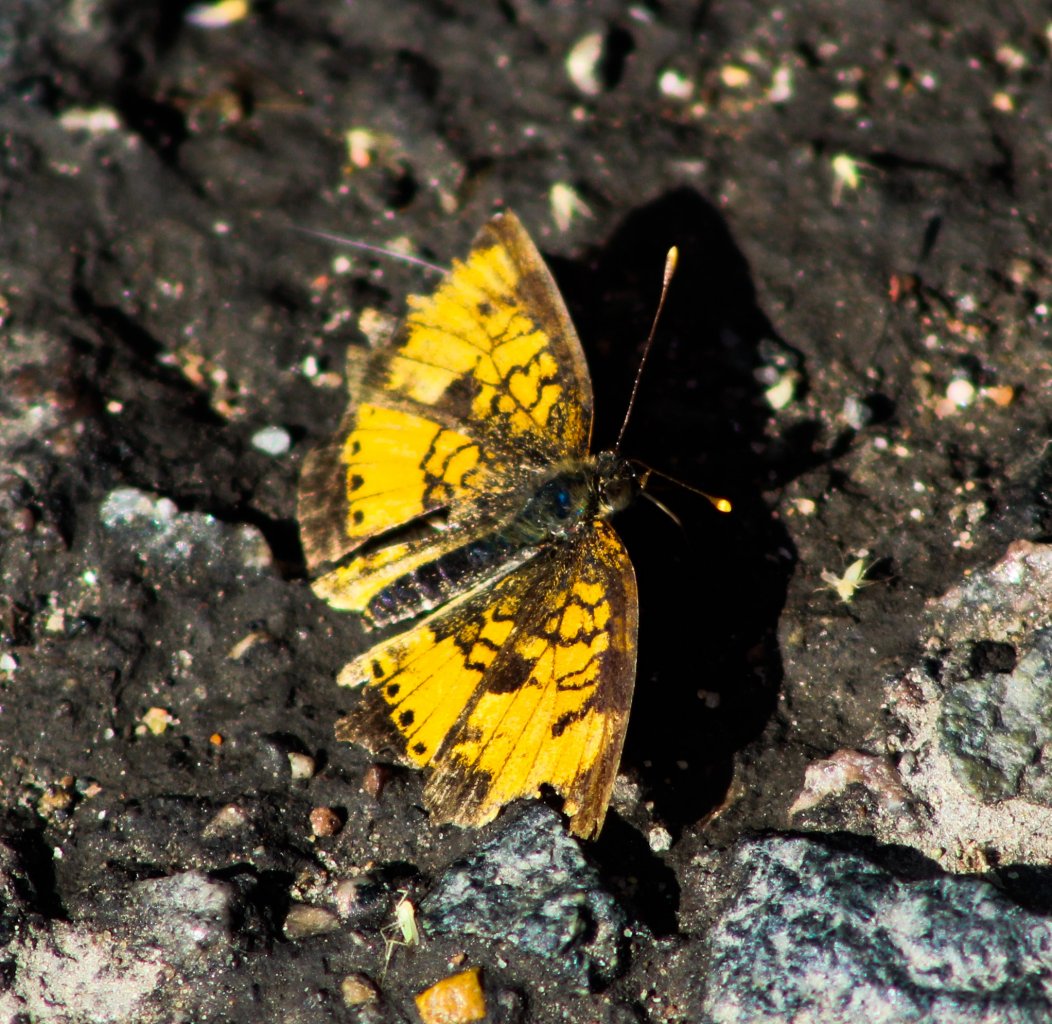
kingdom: Animalia
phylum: Arthropoda
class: Insecta
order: Lepidoptera
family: Nymphalidae
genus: Phyciodes
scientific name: Phyciodes tharos
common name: Northern Crescent
